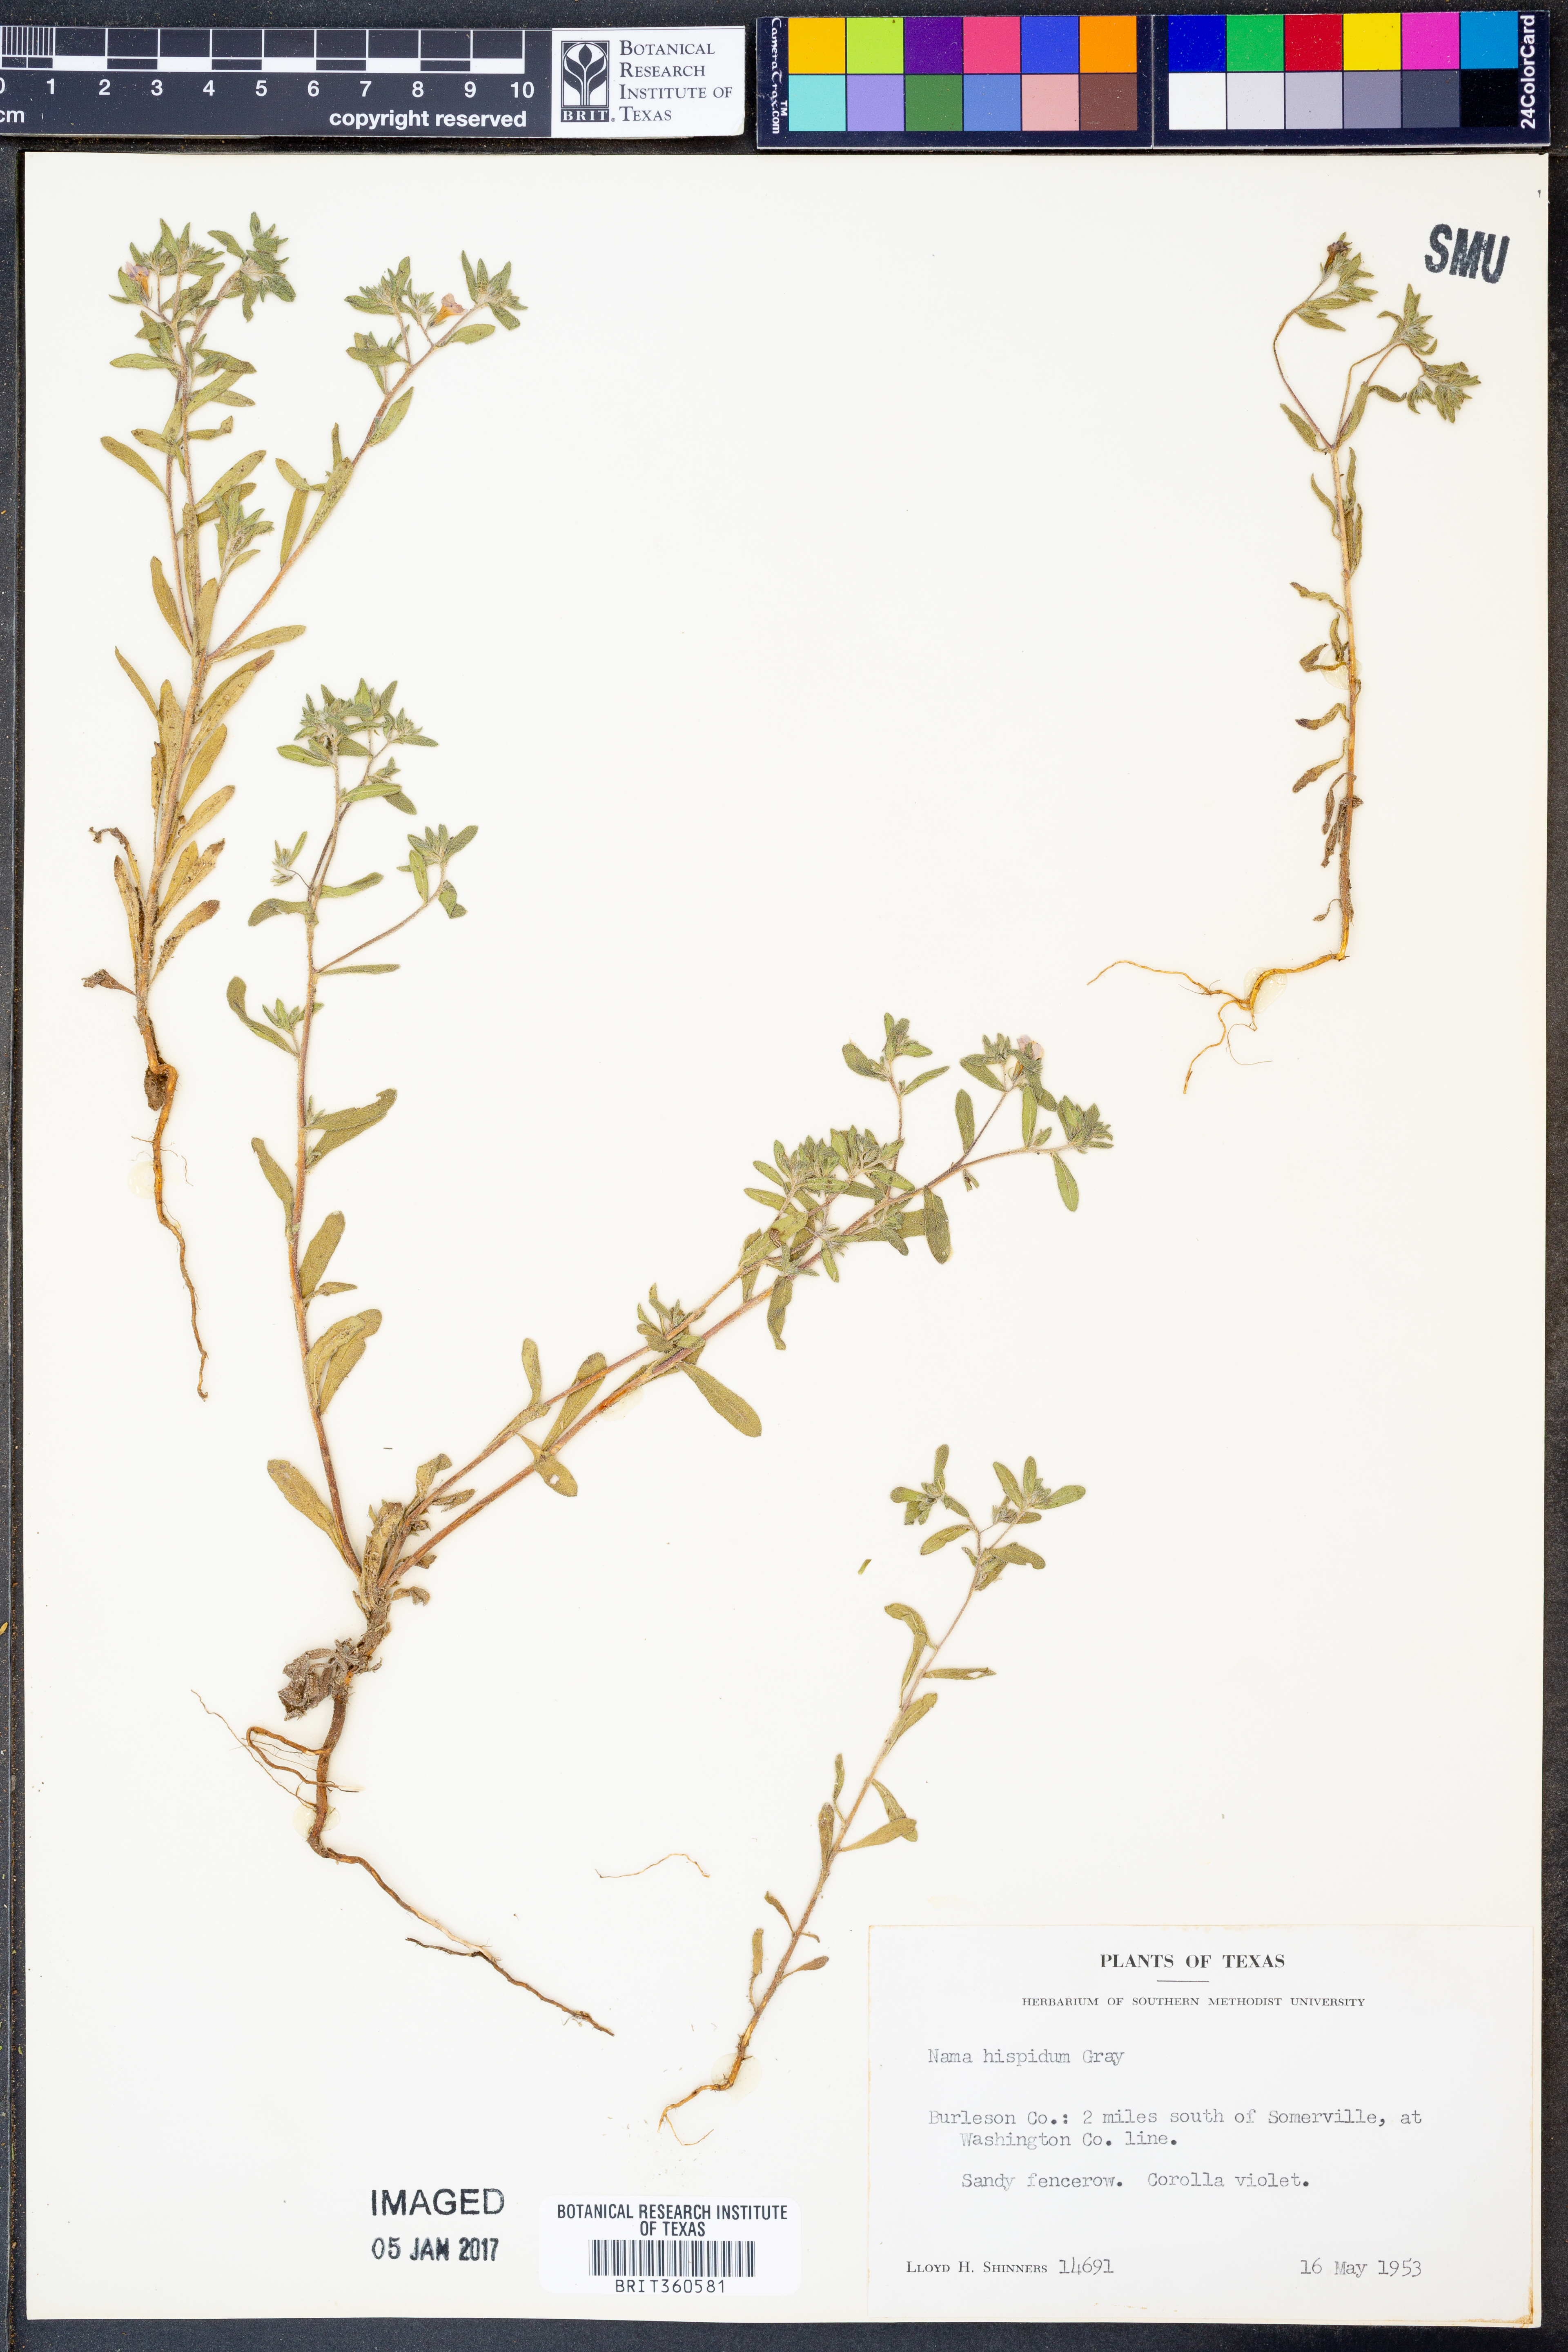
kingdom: Plantae
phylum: Tracheophyta
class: Magnoliopsida
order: Boraginales
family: Namaceae
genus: Nama
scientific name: Nama hispida
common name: Bristly nama
